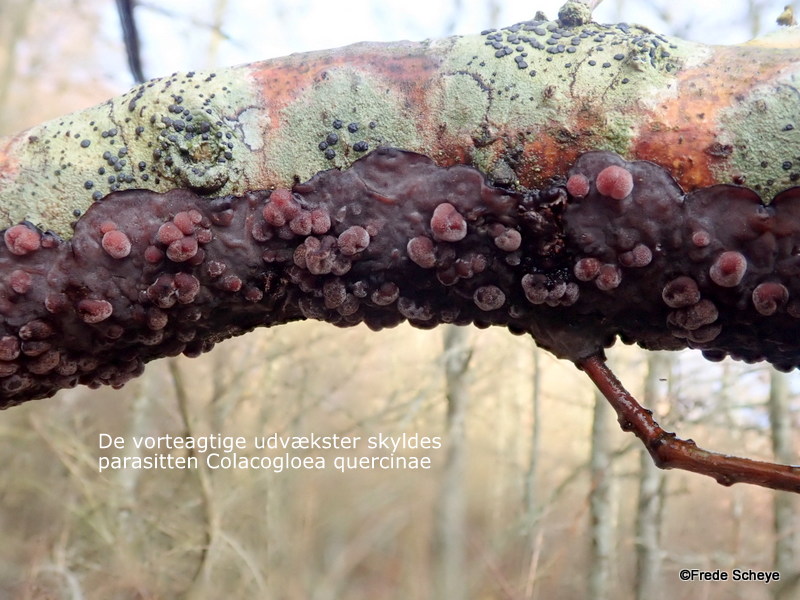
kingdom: Fungi
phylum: Basidiomycota
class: Pucciniomycetes
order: Platygloeales
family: Platygloeaceae
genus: Platygloea
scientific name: Platygloea
